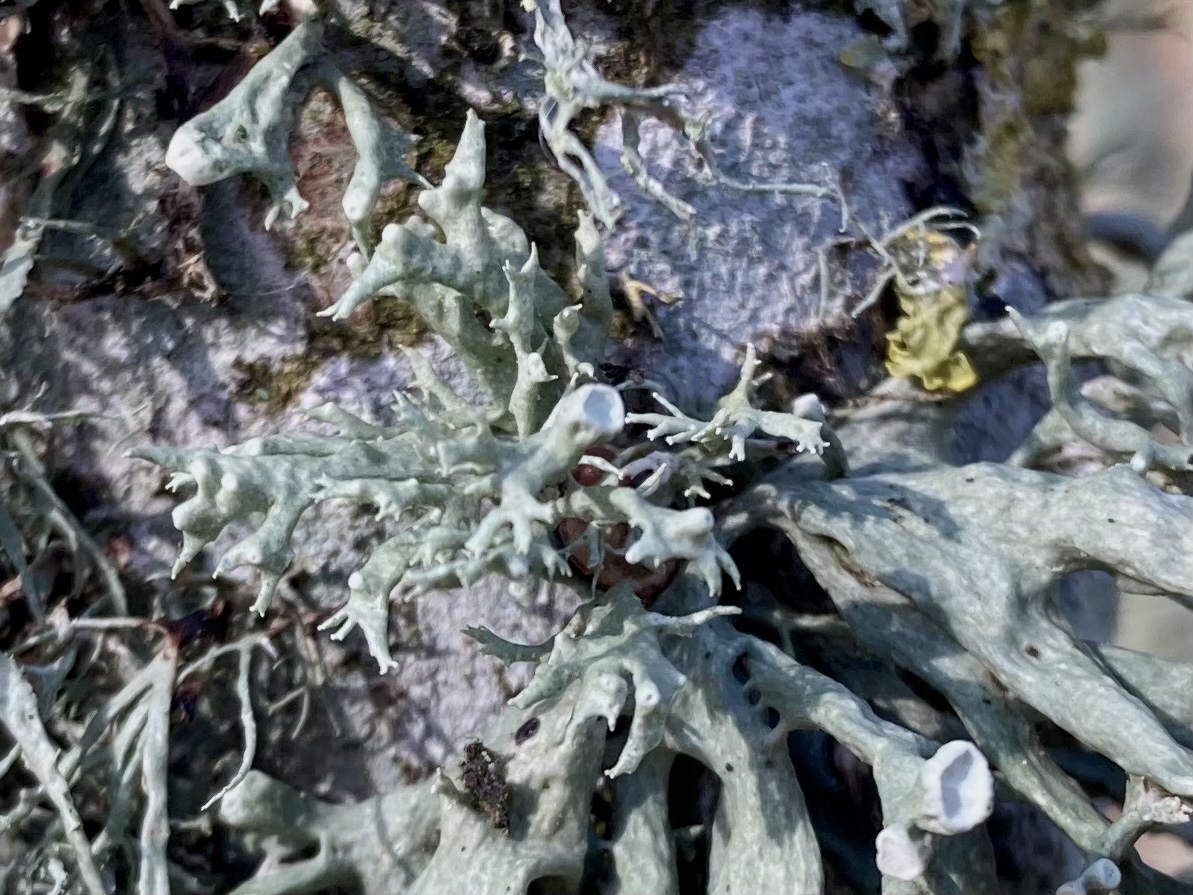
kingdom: Fungi
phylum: Ascomycota
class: Lecanoromycetes
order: Lecanorales
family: Ramalinaceae
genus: Ramalina
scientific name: Ramalina fastigiata
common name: tue-grenlav
